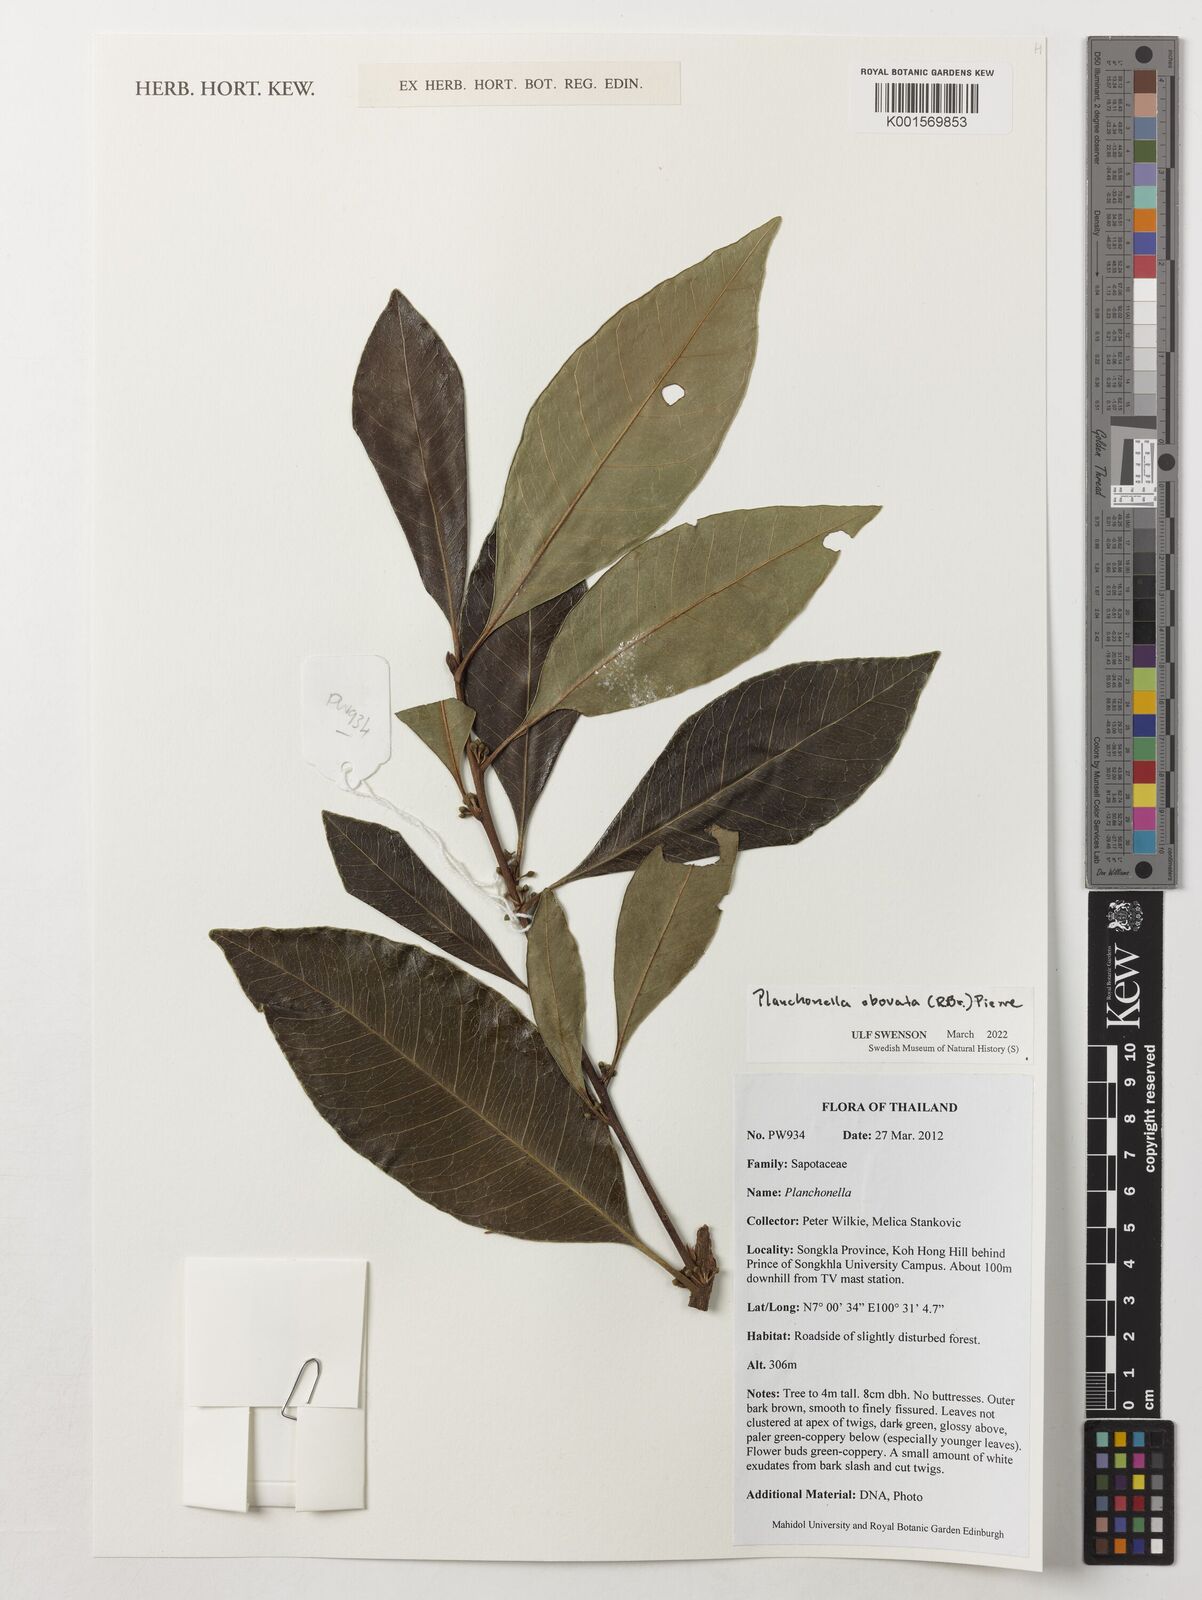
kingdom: Plantae
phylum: Tracheophyta
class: Magnoliopsida
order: Ericales
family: Sapotaceae
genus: Planchonella
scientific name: Planchonella obovata
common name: Black-ash
